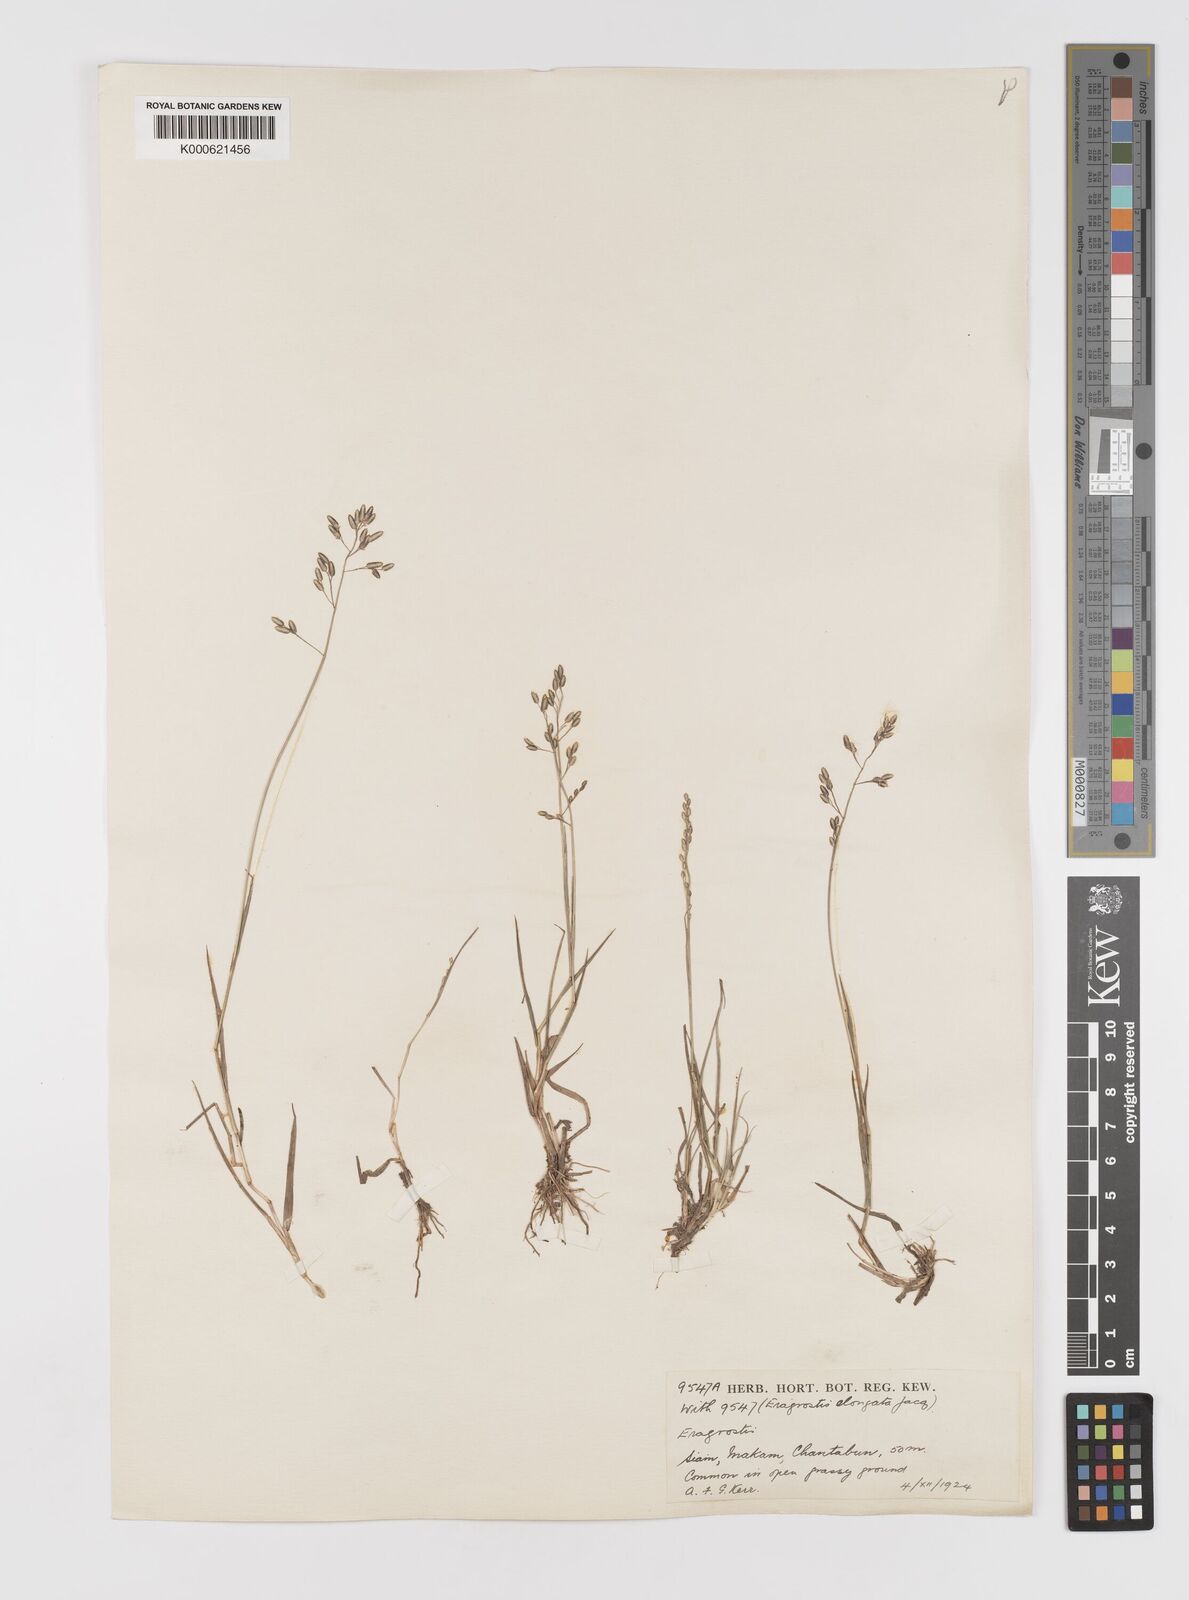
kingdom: Plantae
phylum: Tracheophyta
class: Liliopsida
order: Poales
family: Poaceae
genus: Eragrostis
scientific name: Eragrostis montana
